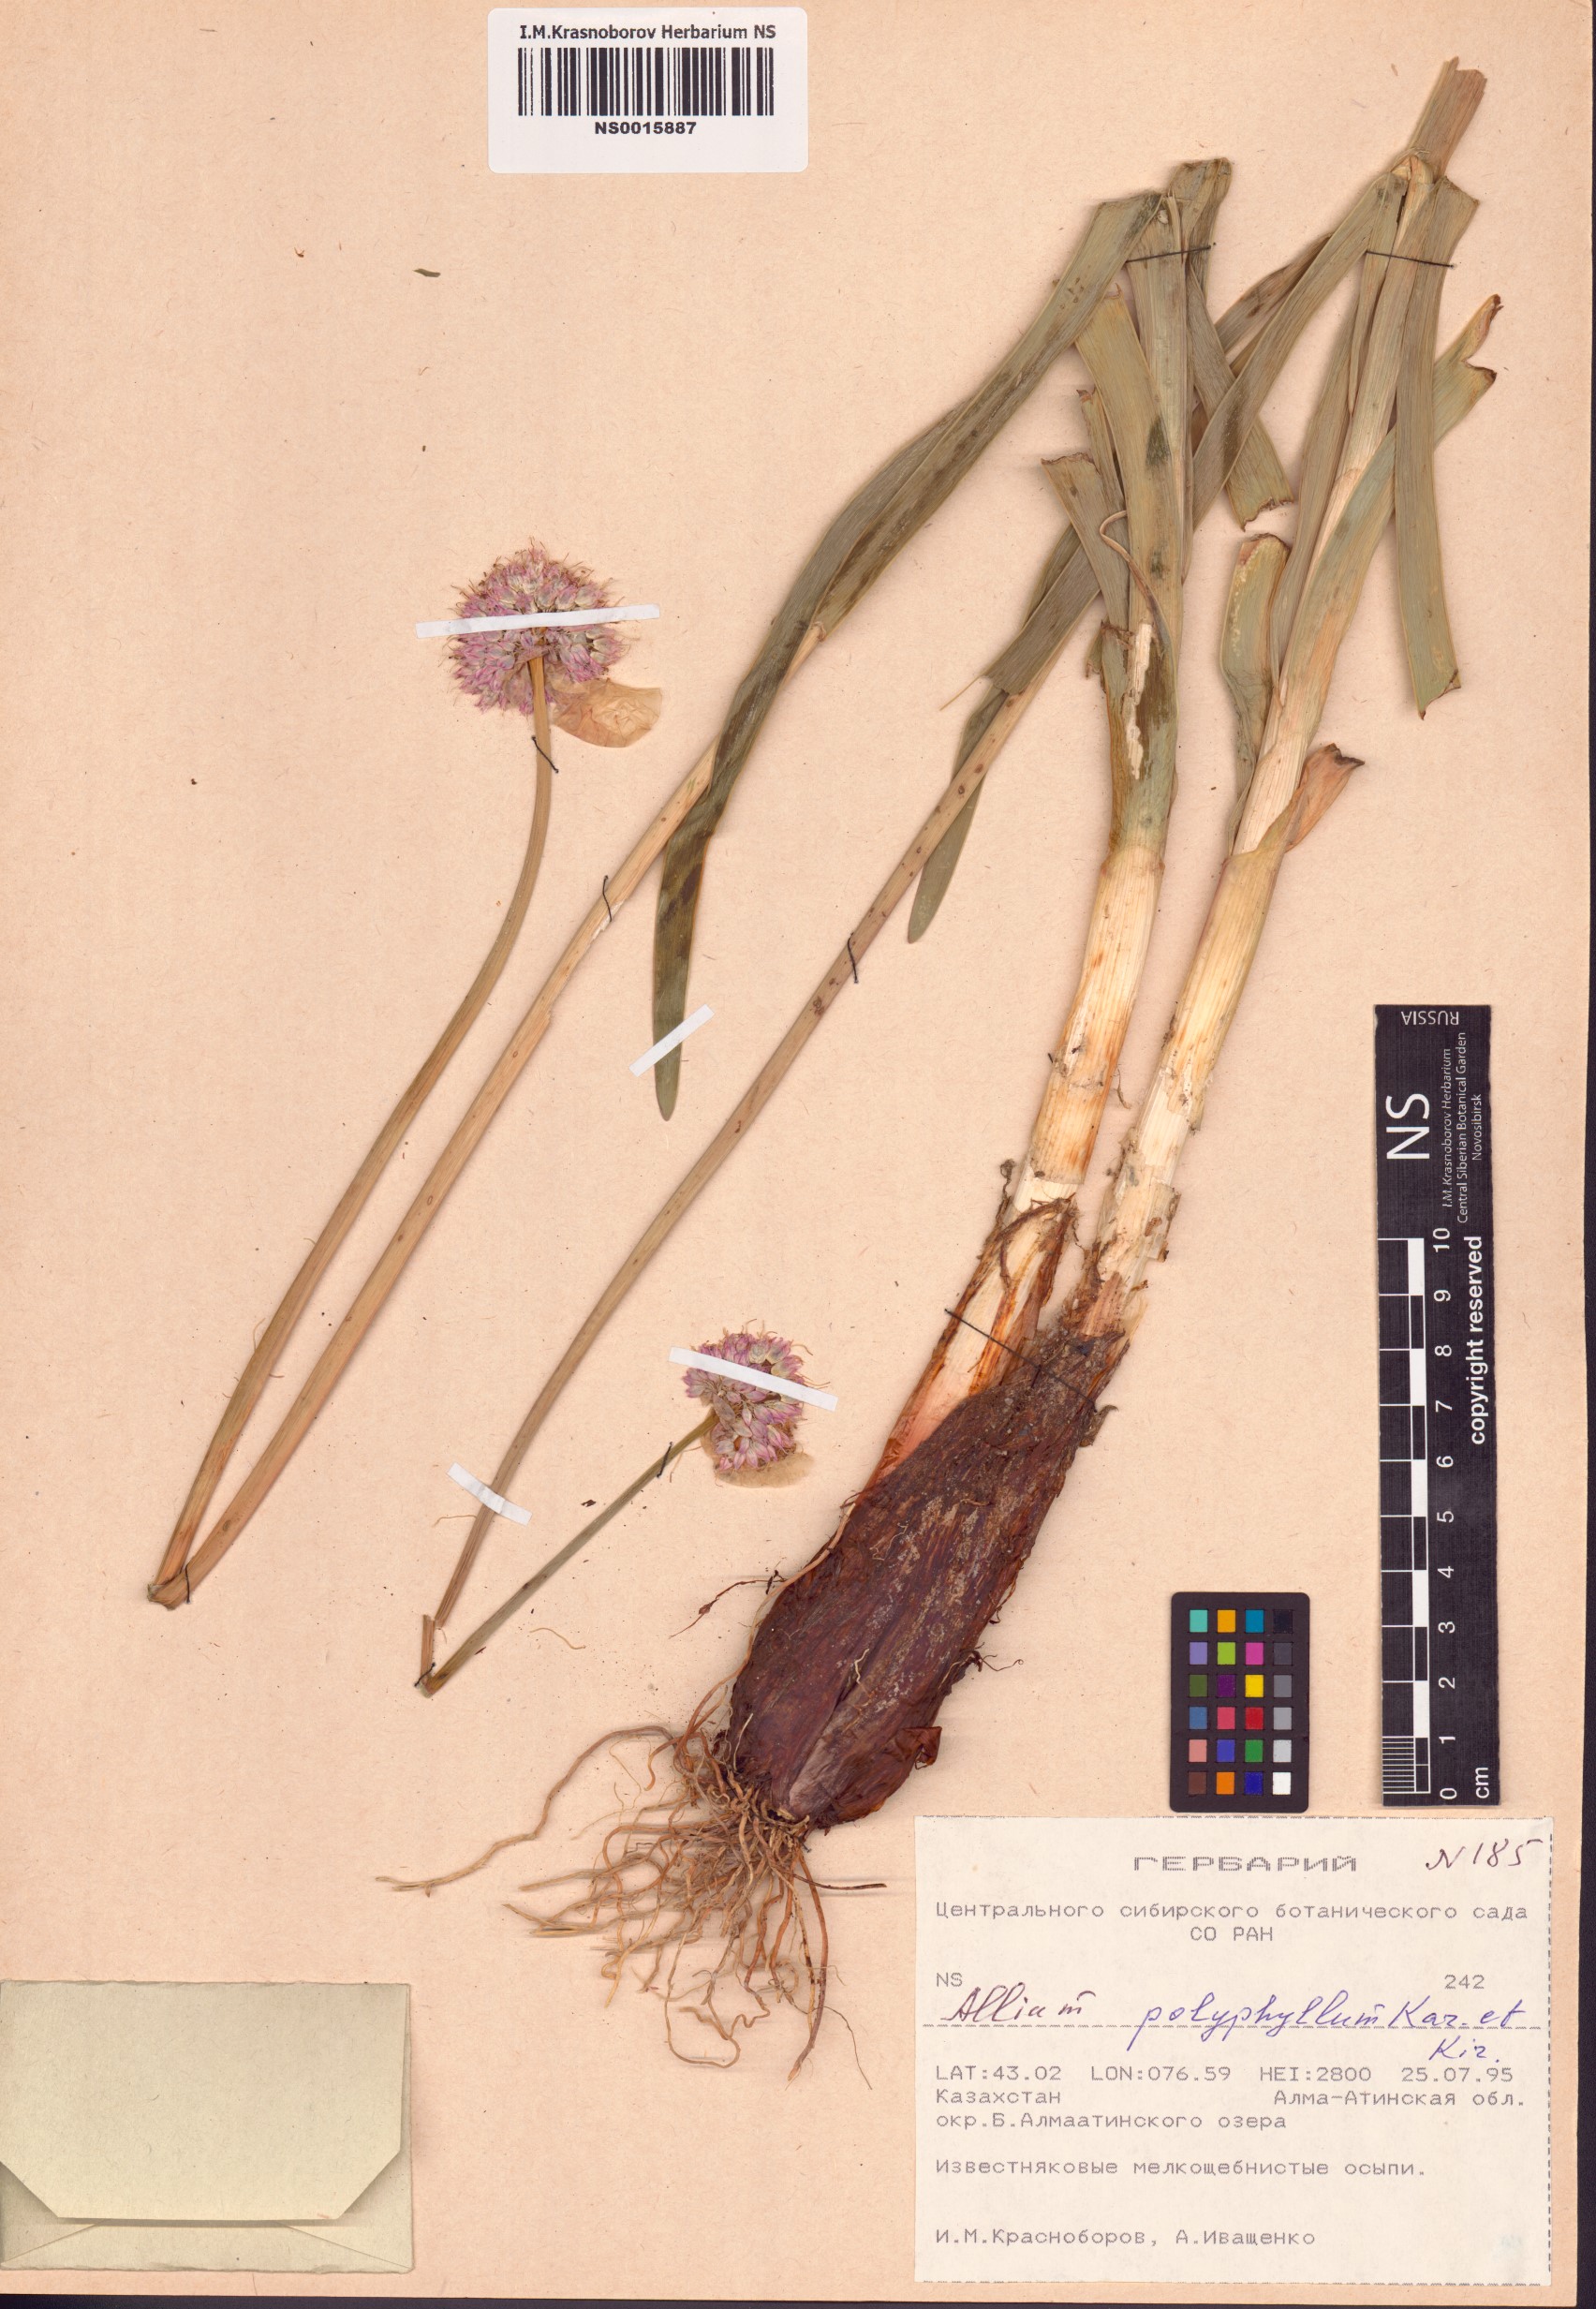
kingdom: Plantae
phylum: Tracheophyta
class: Liliopsida
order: Asparagales
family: Amaryllidaceae
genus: Allium
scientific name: Allium carolinianum
